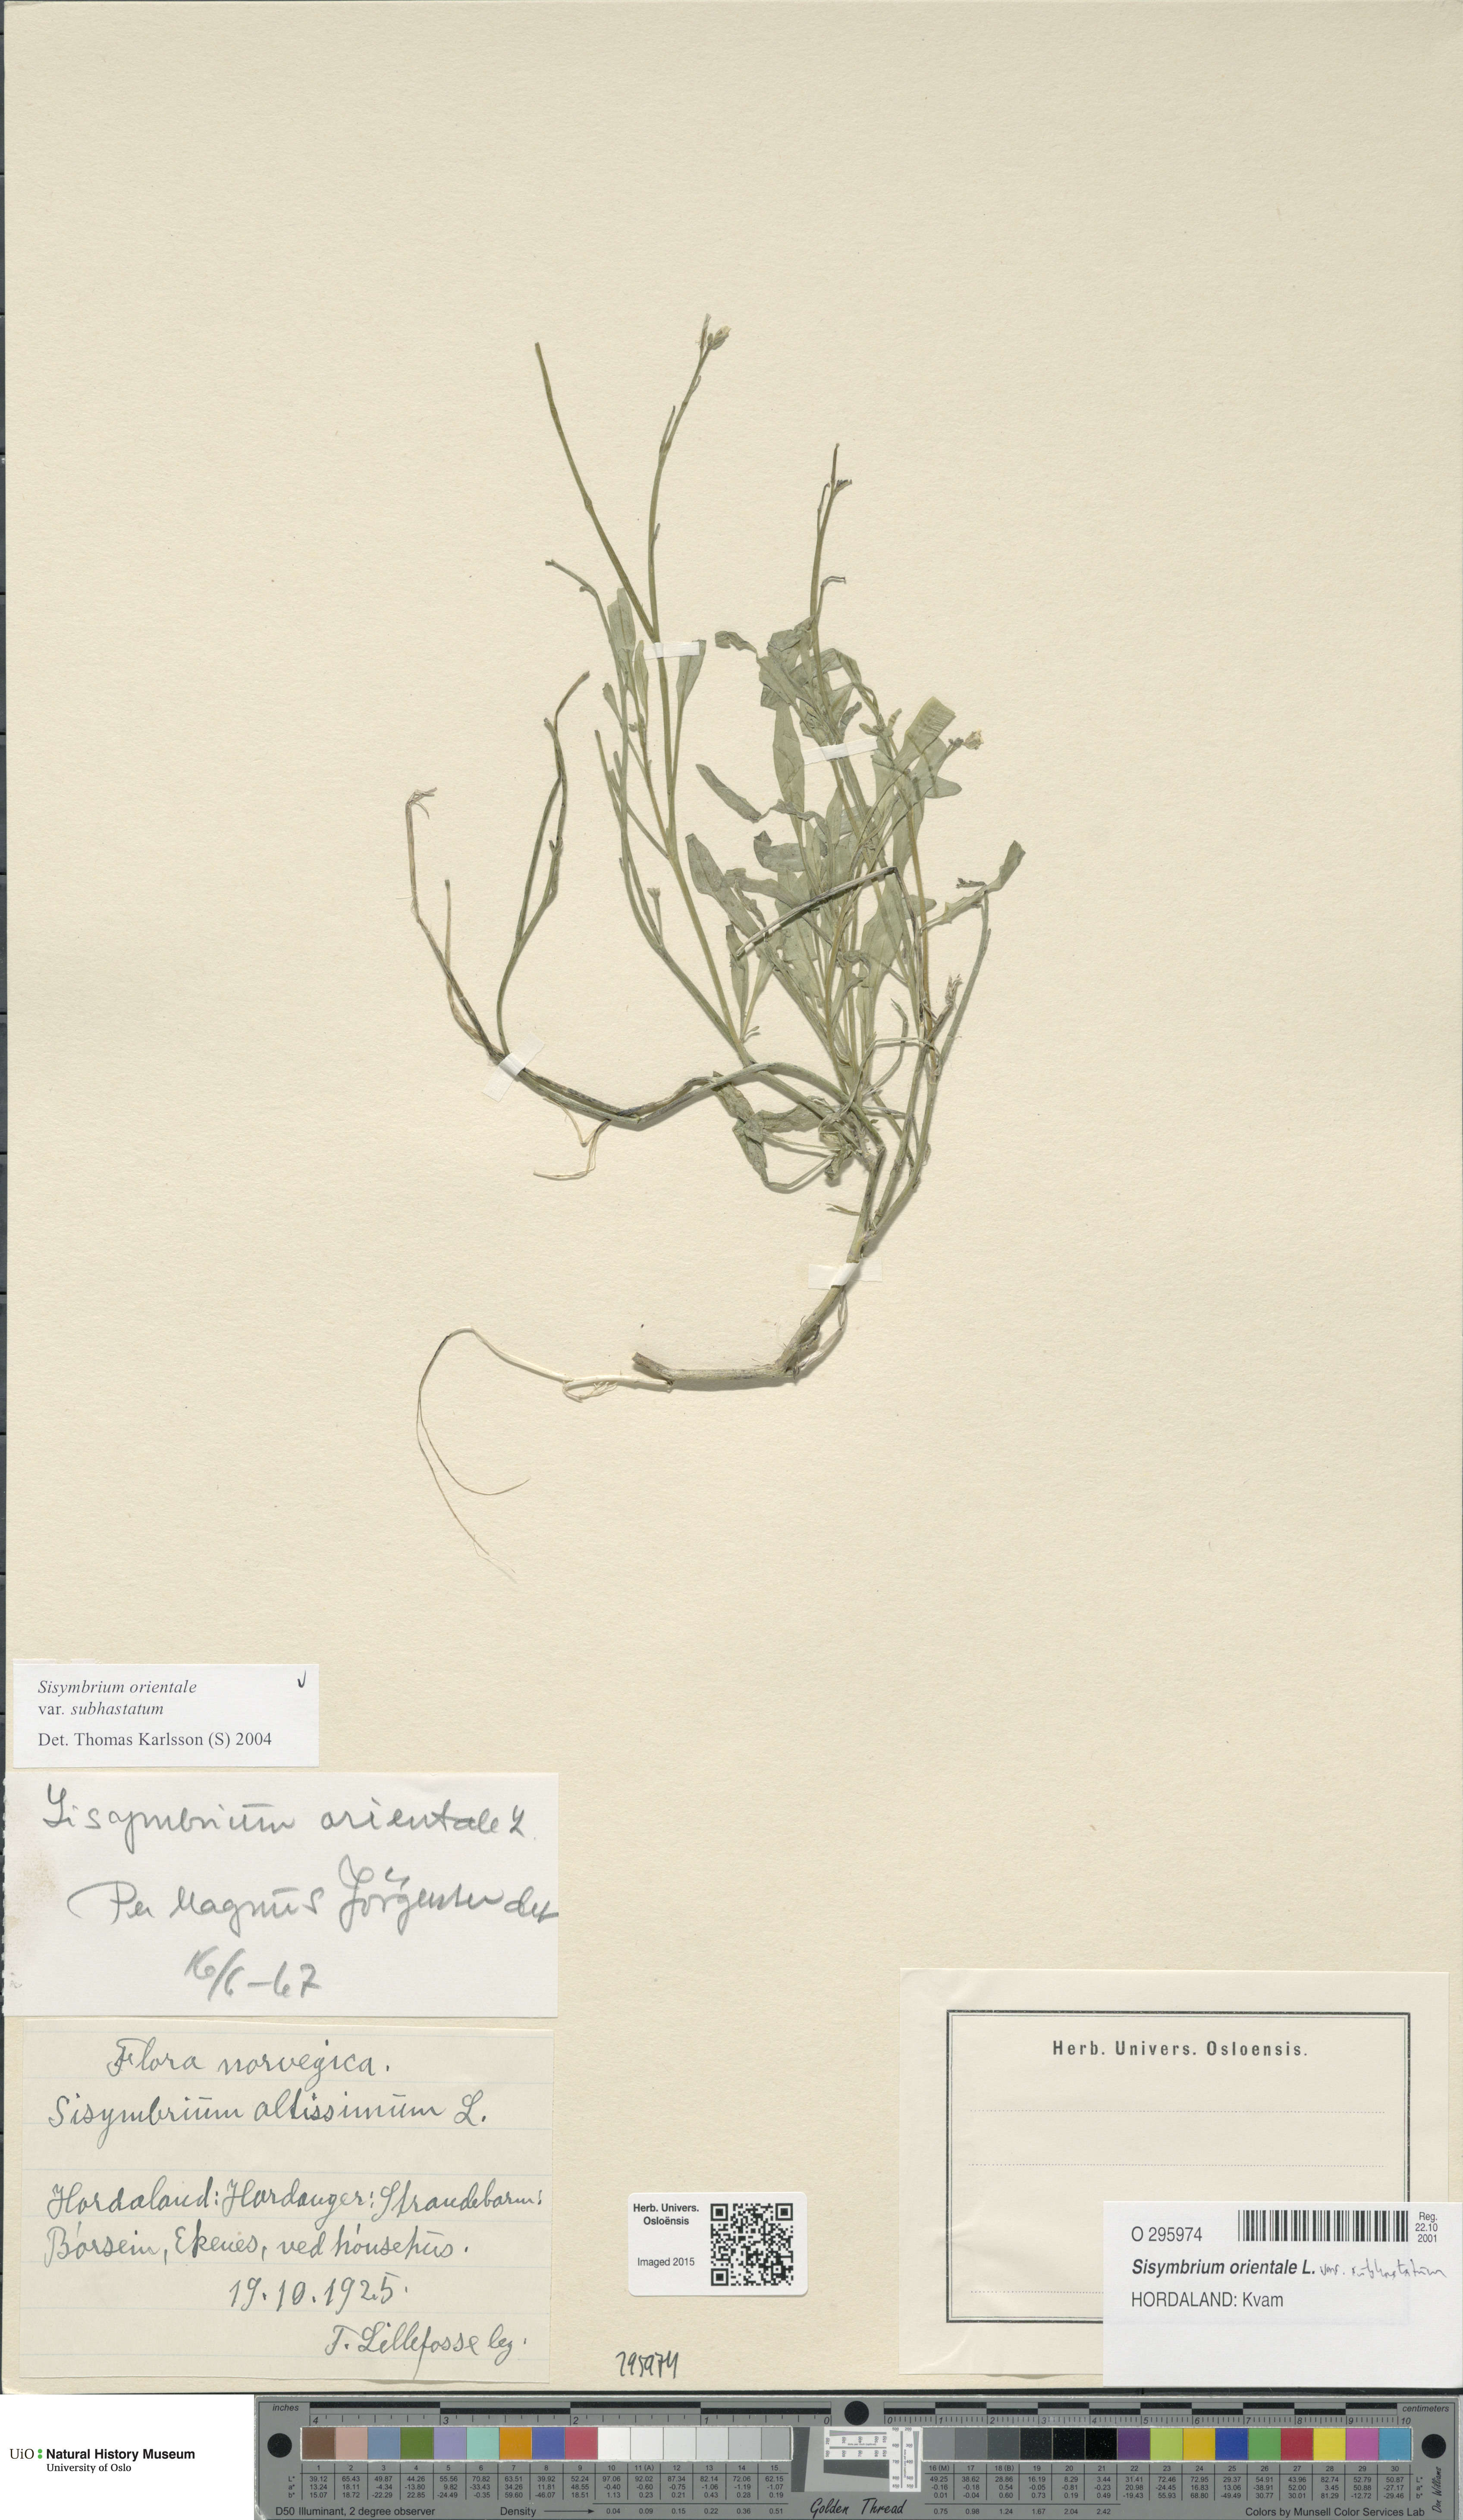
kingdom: Plantae
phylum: Tracheophyta
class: Magnoliopsida
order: Brassicales
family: Brassicaceae
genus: Sisymbrium
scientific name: Sisymbrium orientale
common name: Eastern rocket
